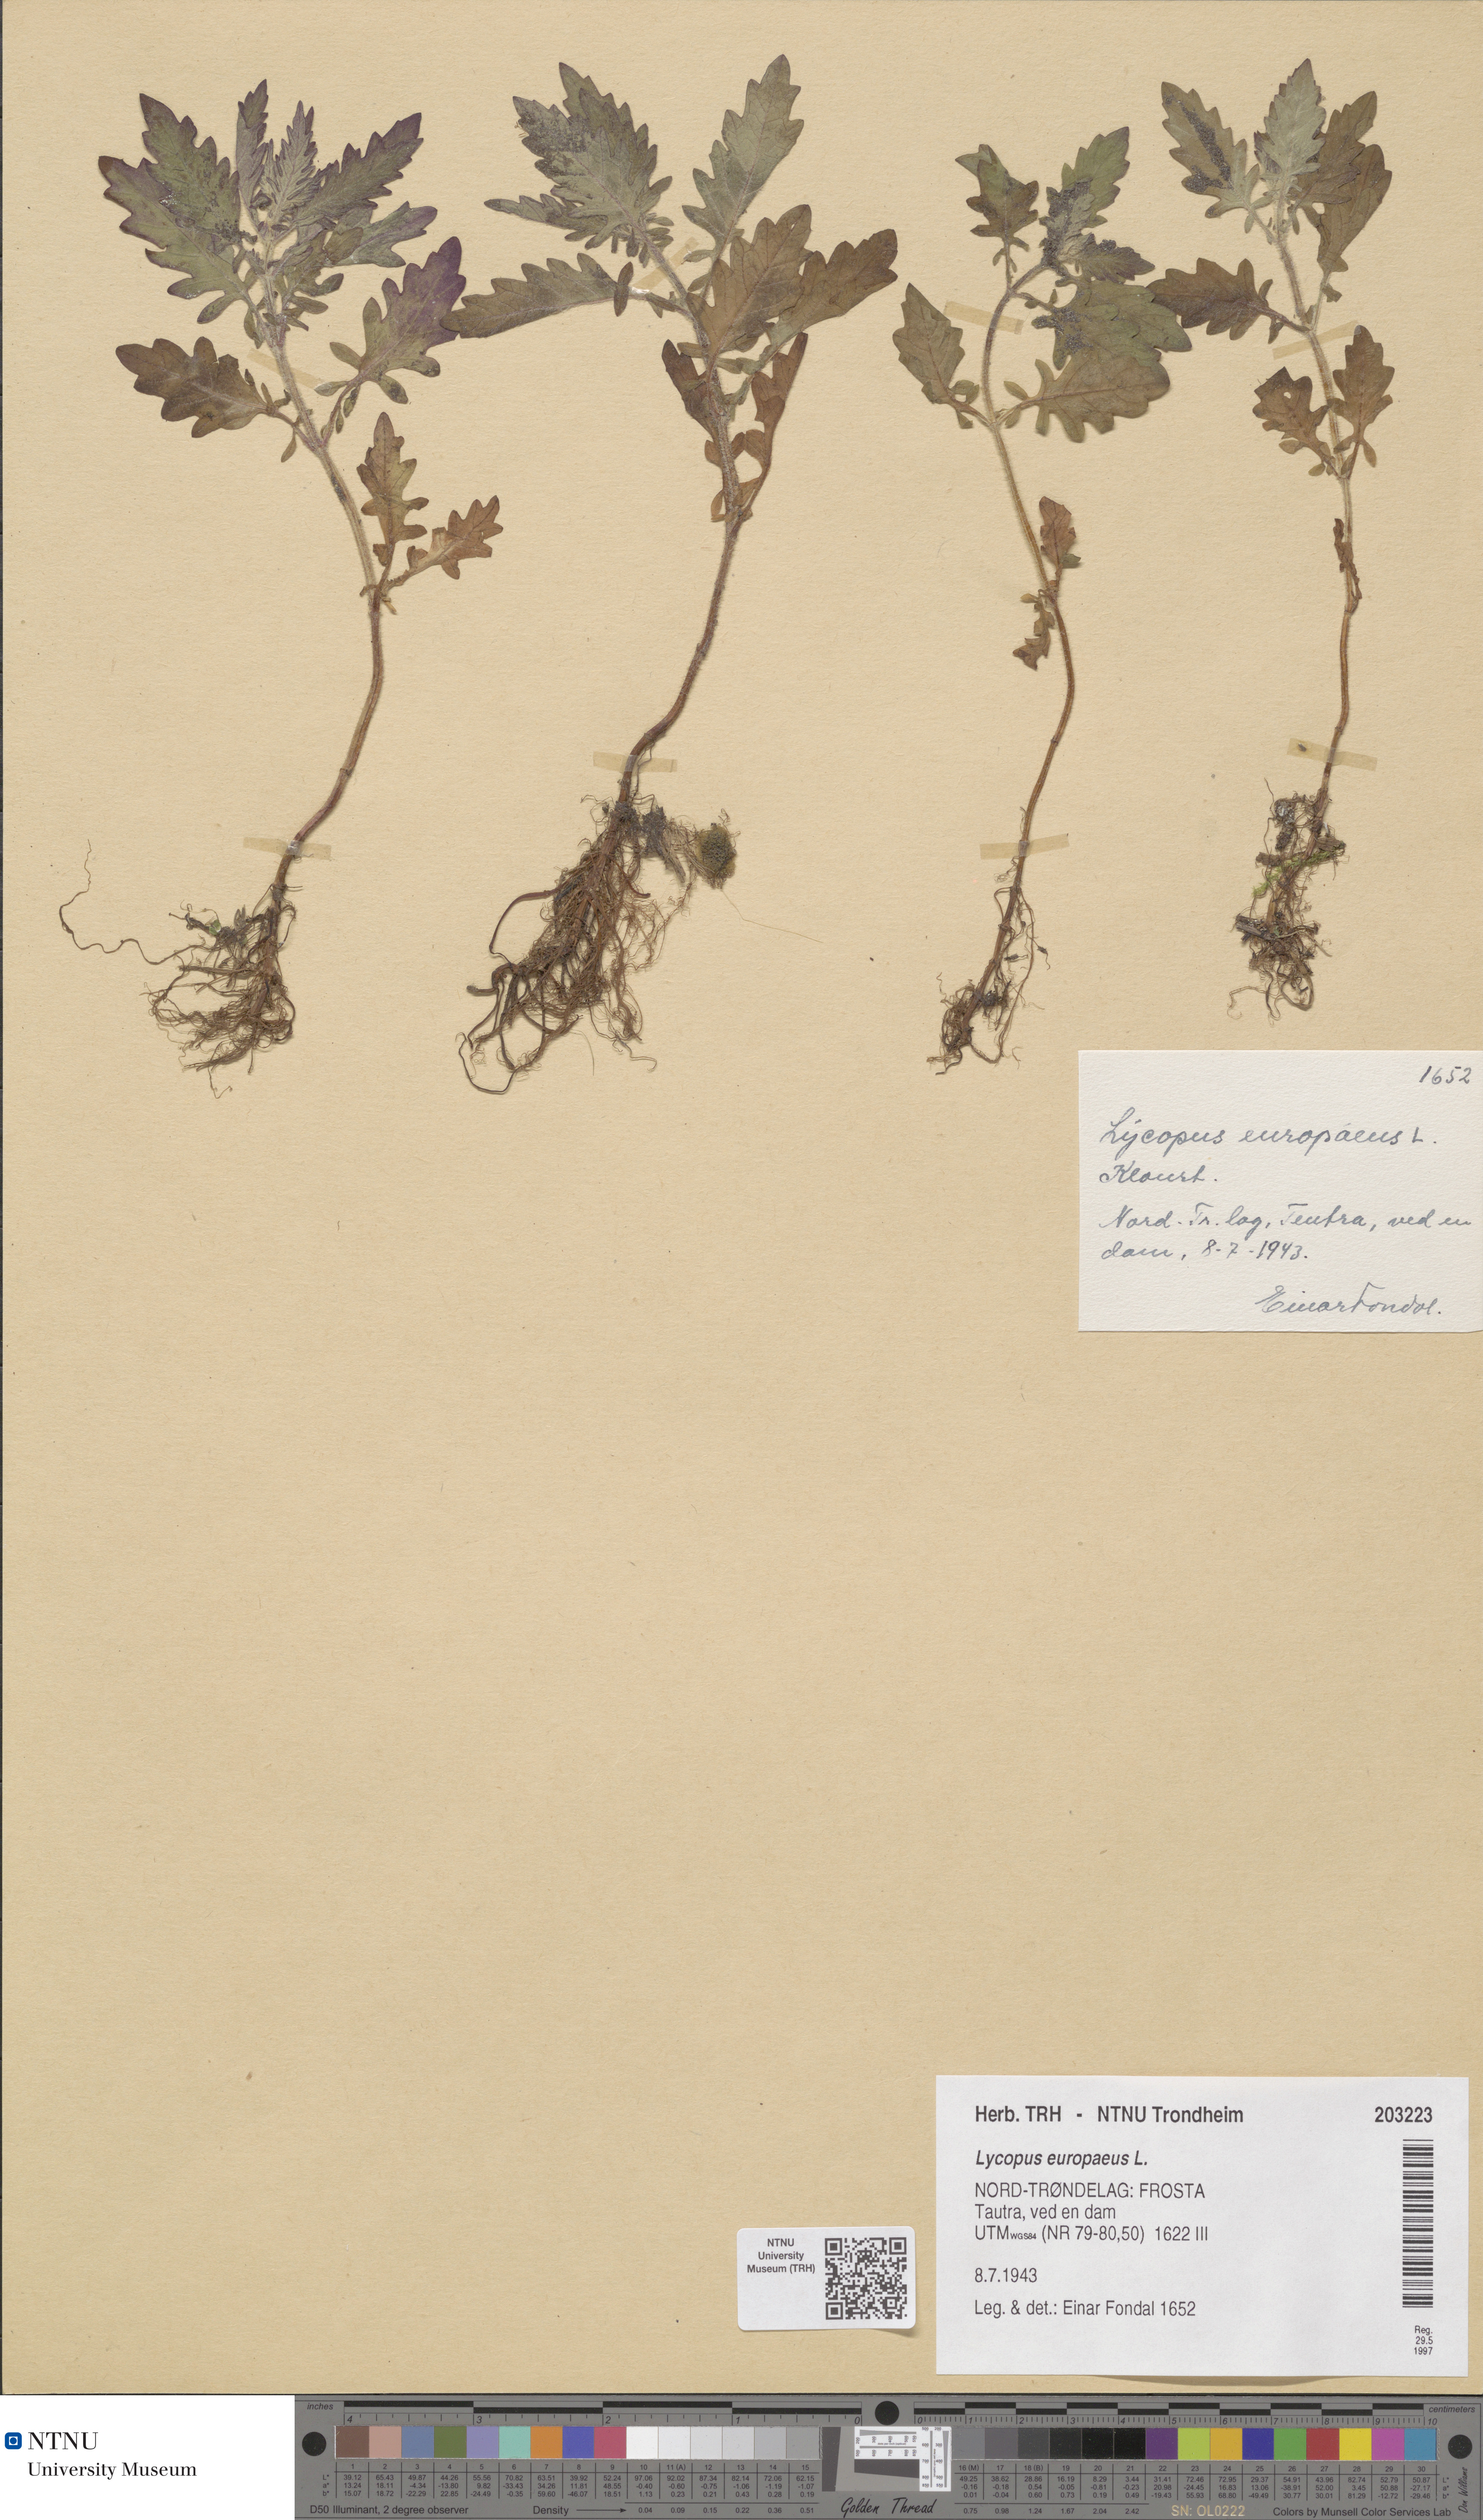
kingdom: Plantae
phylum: Tracheophyta
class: Magnoliopsida
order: Lamiales
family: Lamiaceae
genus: Lycopus
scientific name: Lycopus europaeus
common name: European bugleweed
